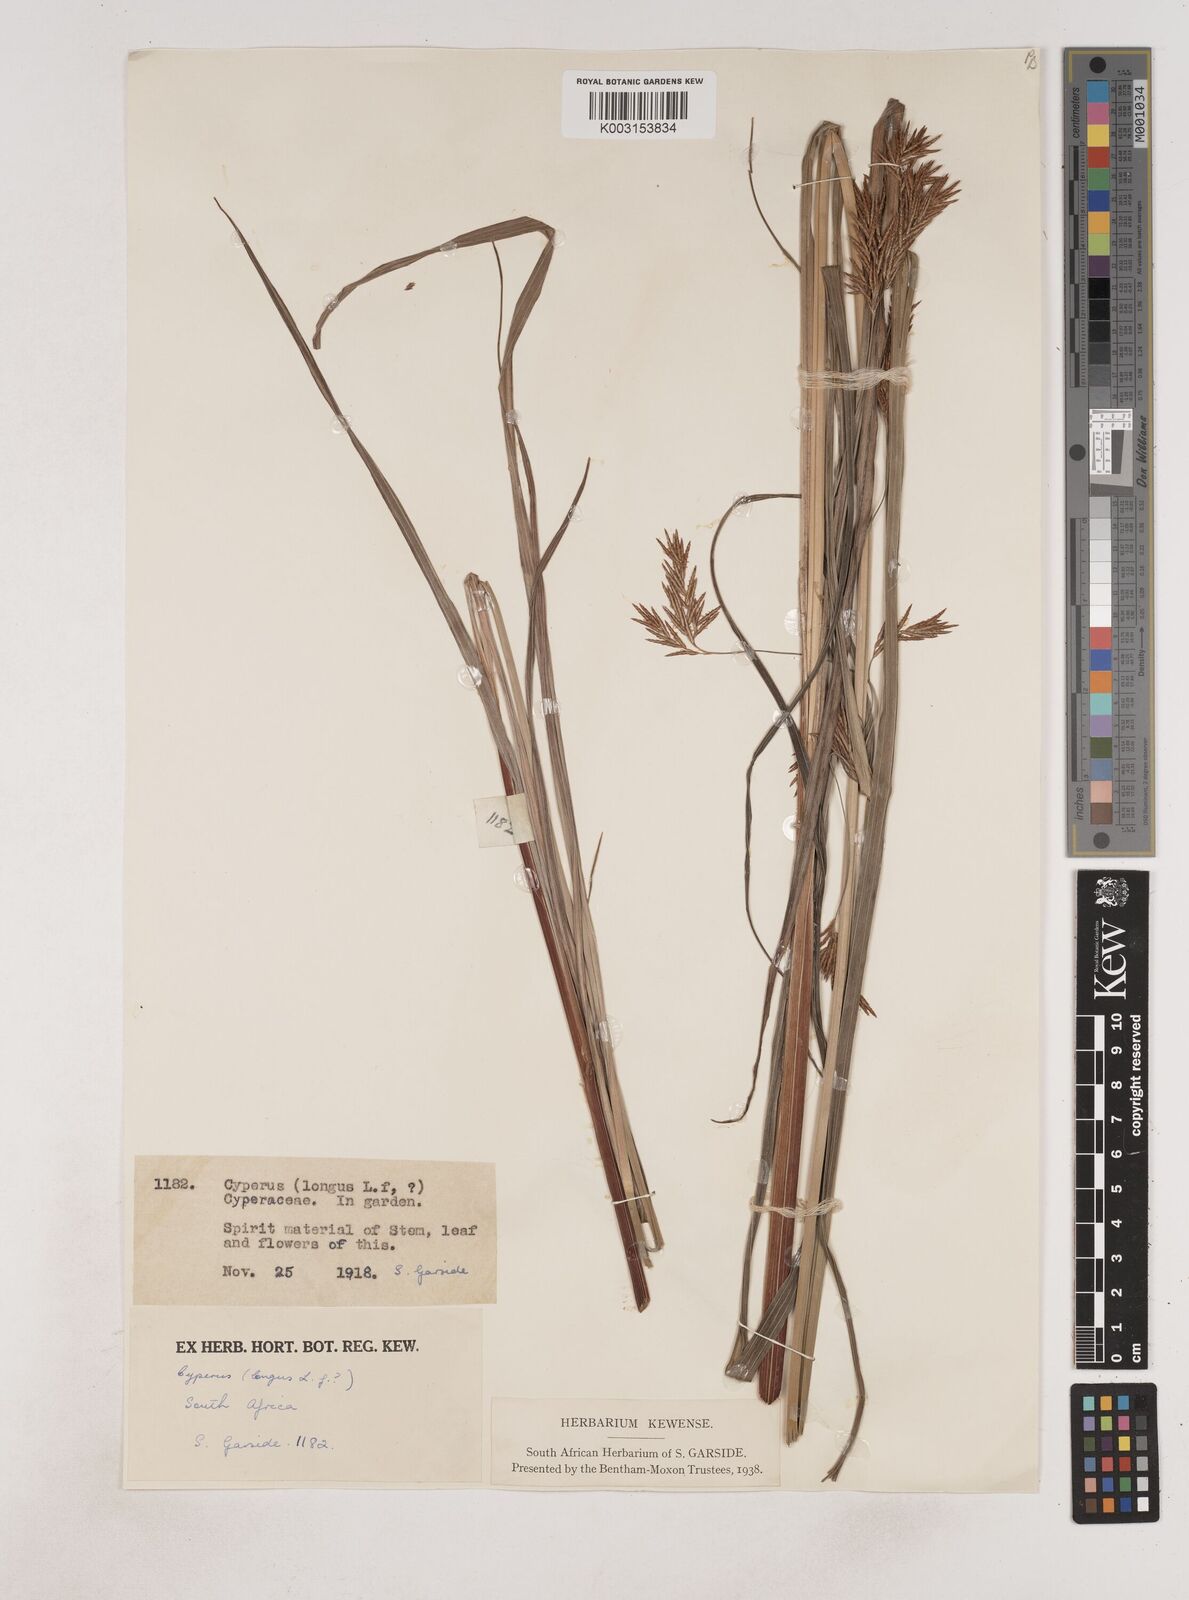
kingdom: Plantae
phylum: Tracheophyta
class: Liliopsida
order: Poales
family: Cyperaceae
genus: Cyperus
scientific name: Cyperus
